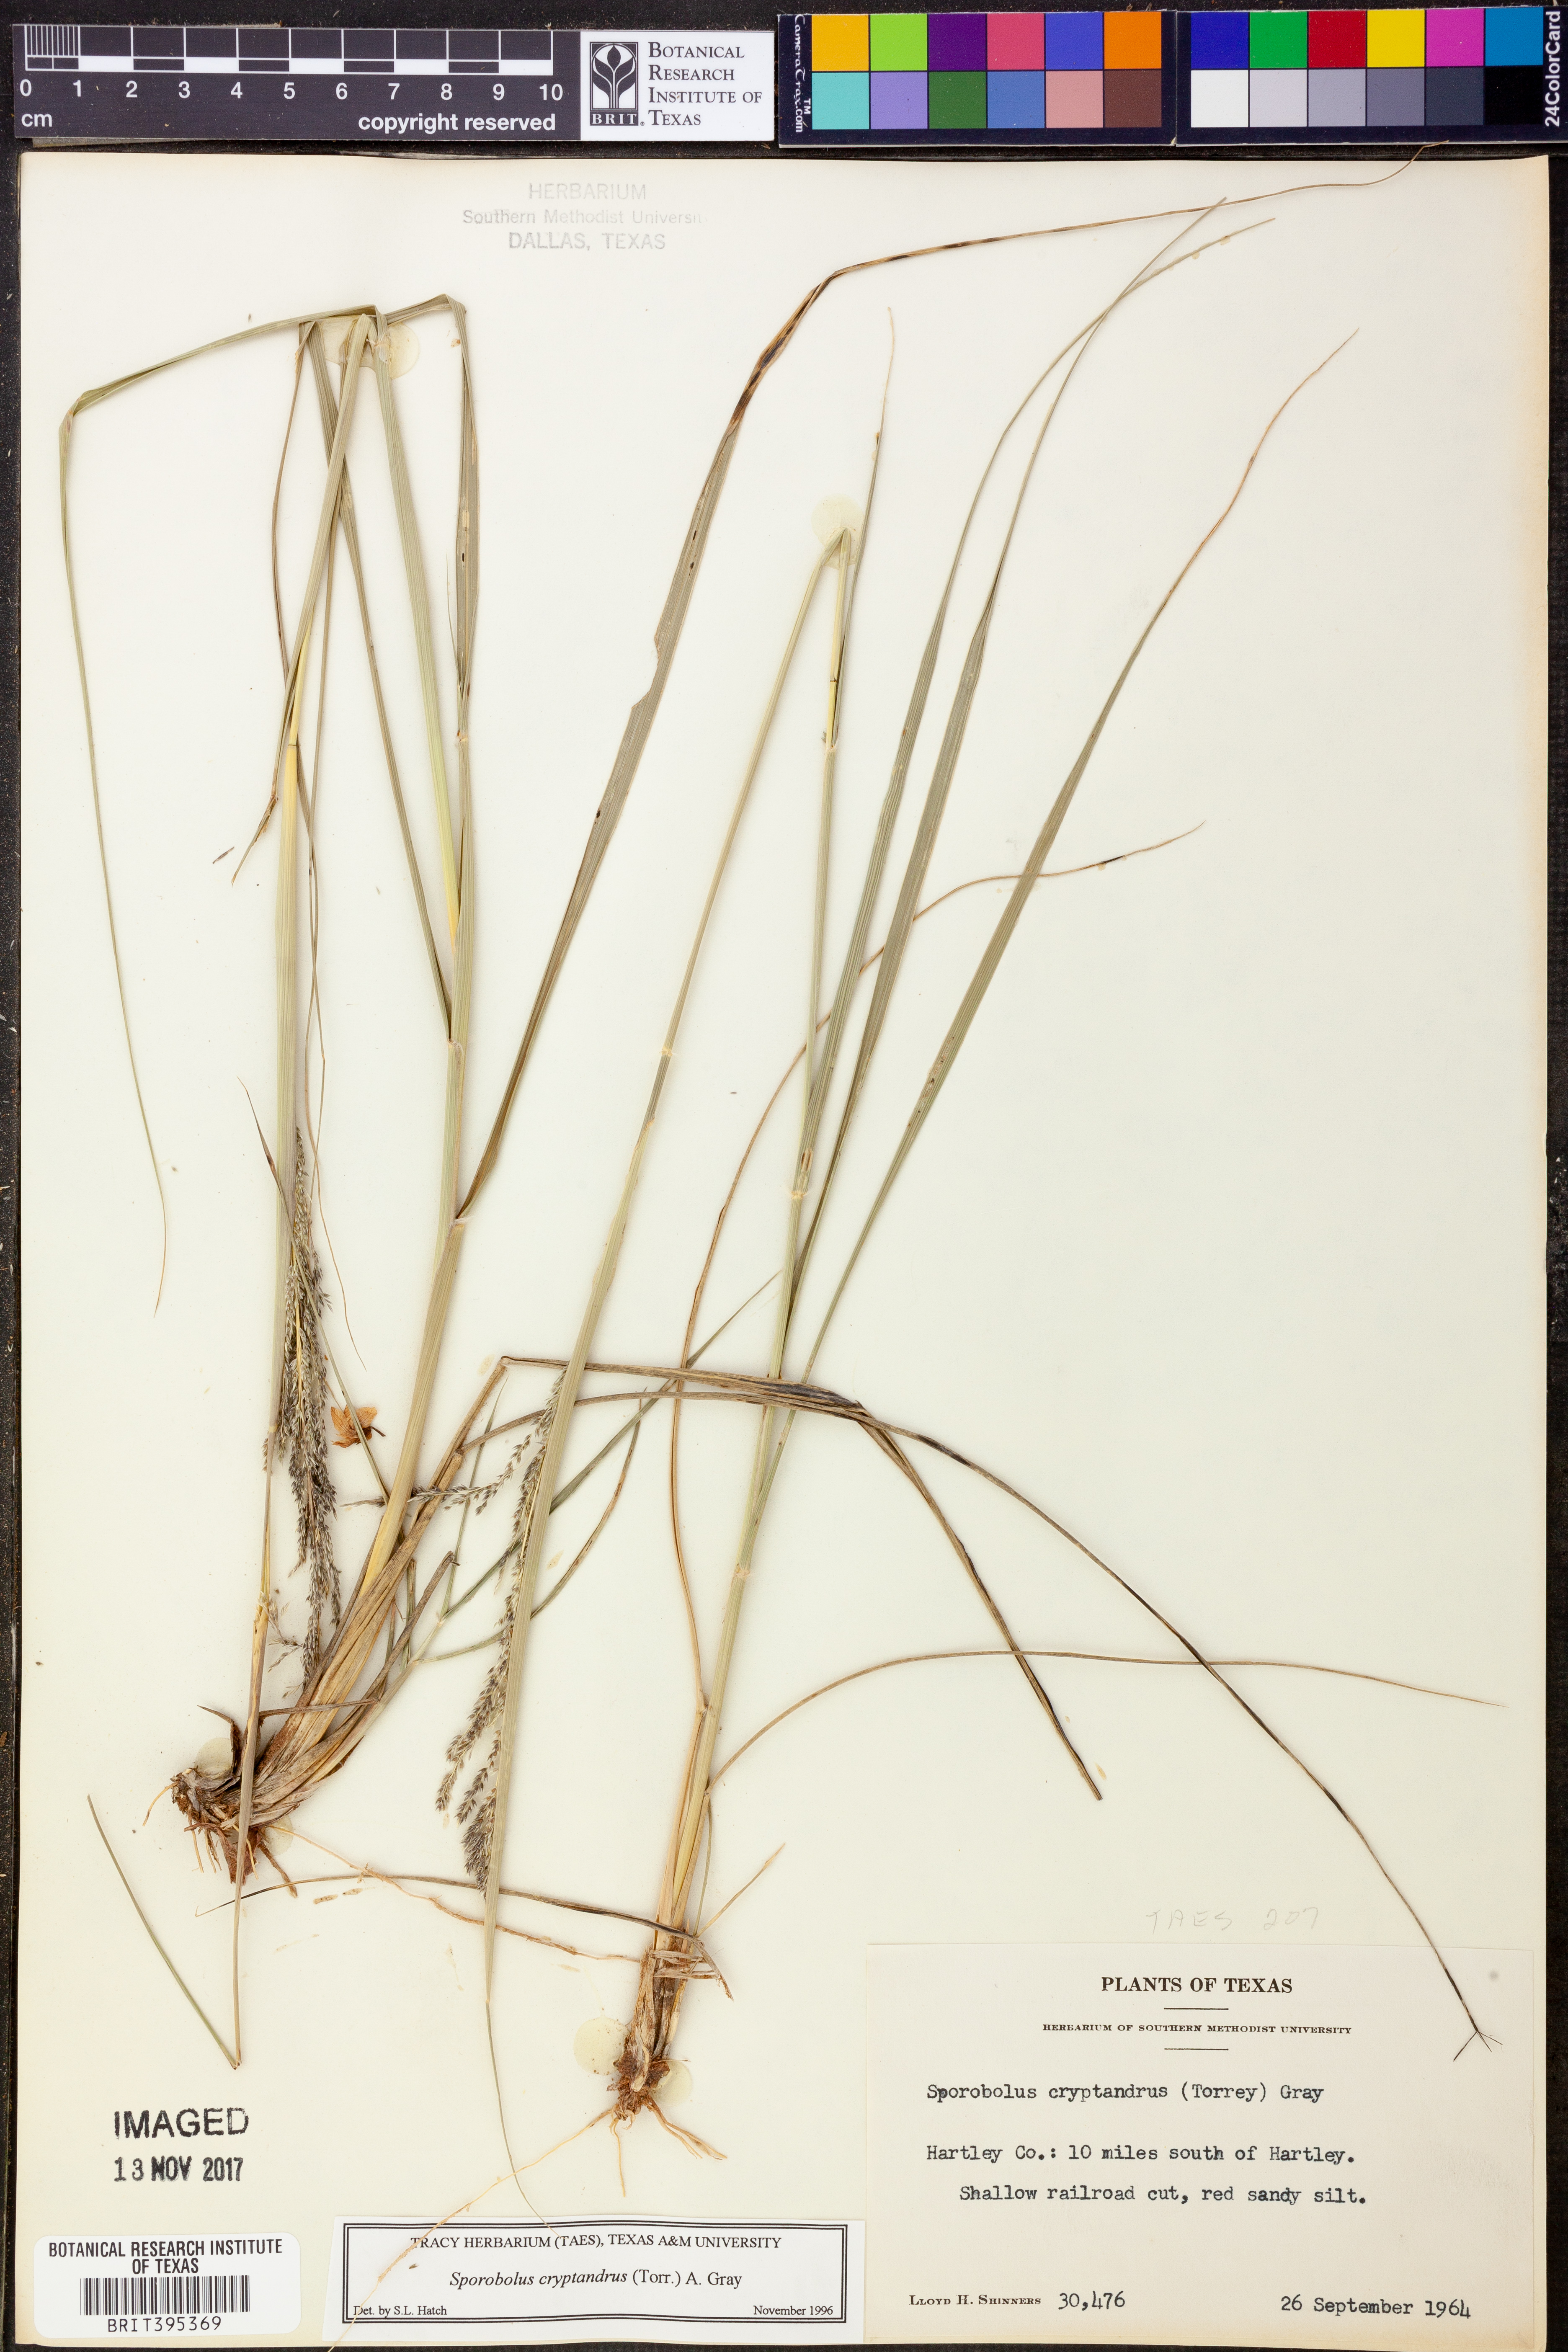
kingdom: Plantae
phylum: Tracheophyta
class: Liliopsida
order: Poales
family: Poaceae
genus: Sporobolus
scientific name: Sporobolus cryptandrus
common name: Sand dropseed
